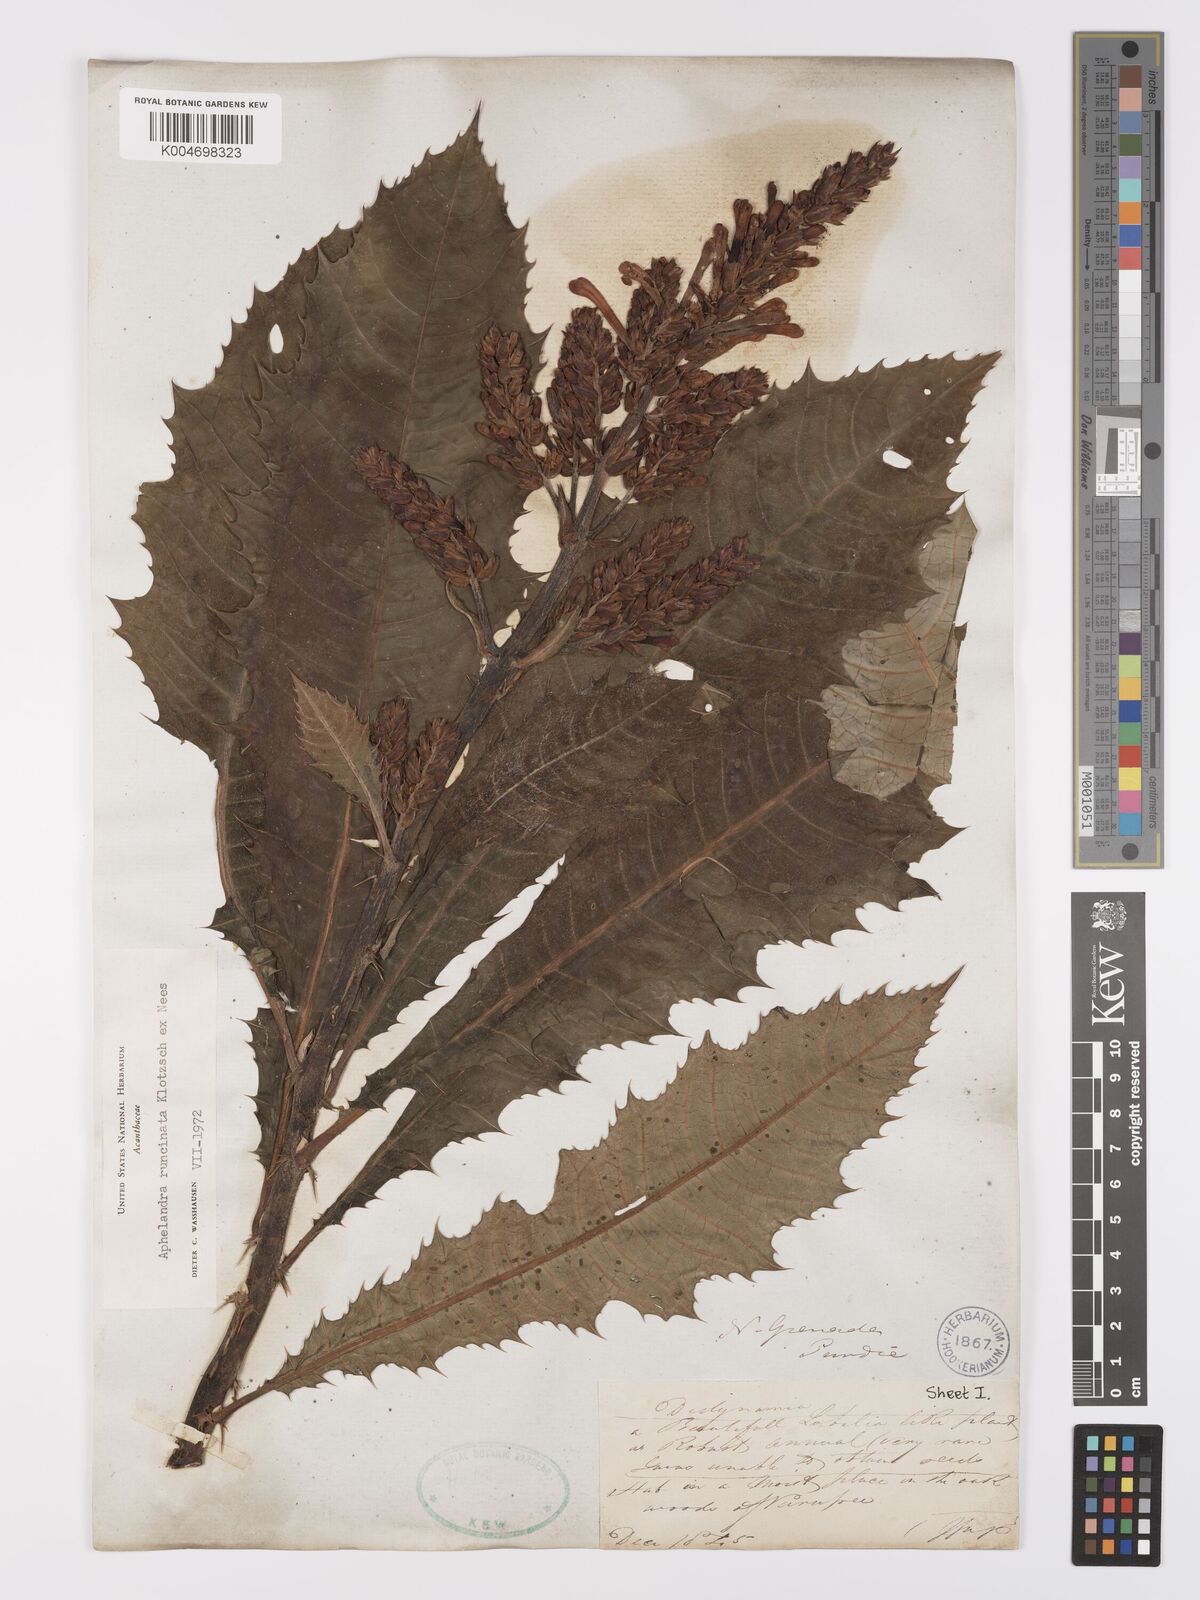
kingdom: Plantae
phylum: Tracheophyta
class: Magnoliopsida
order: Lamiales
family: Acanthaceae
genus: Aphelandra
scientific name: Aphelandra runcinata
